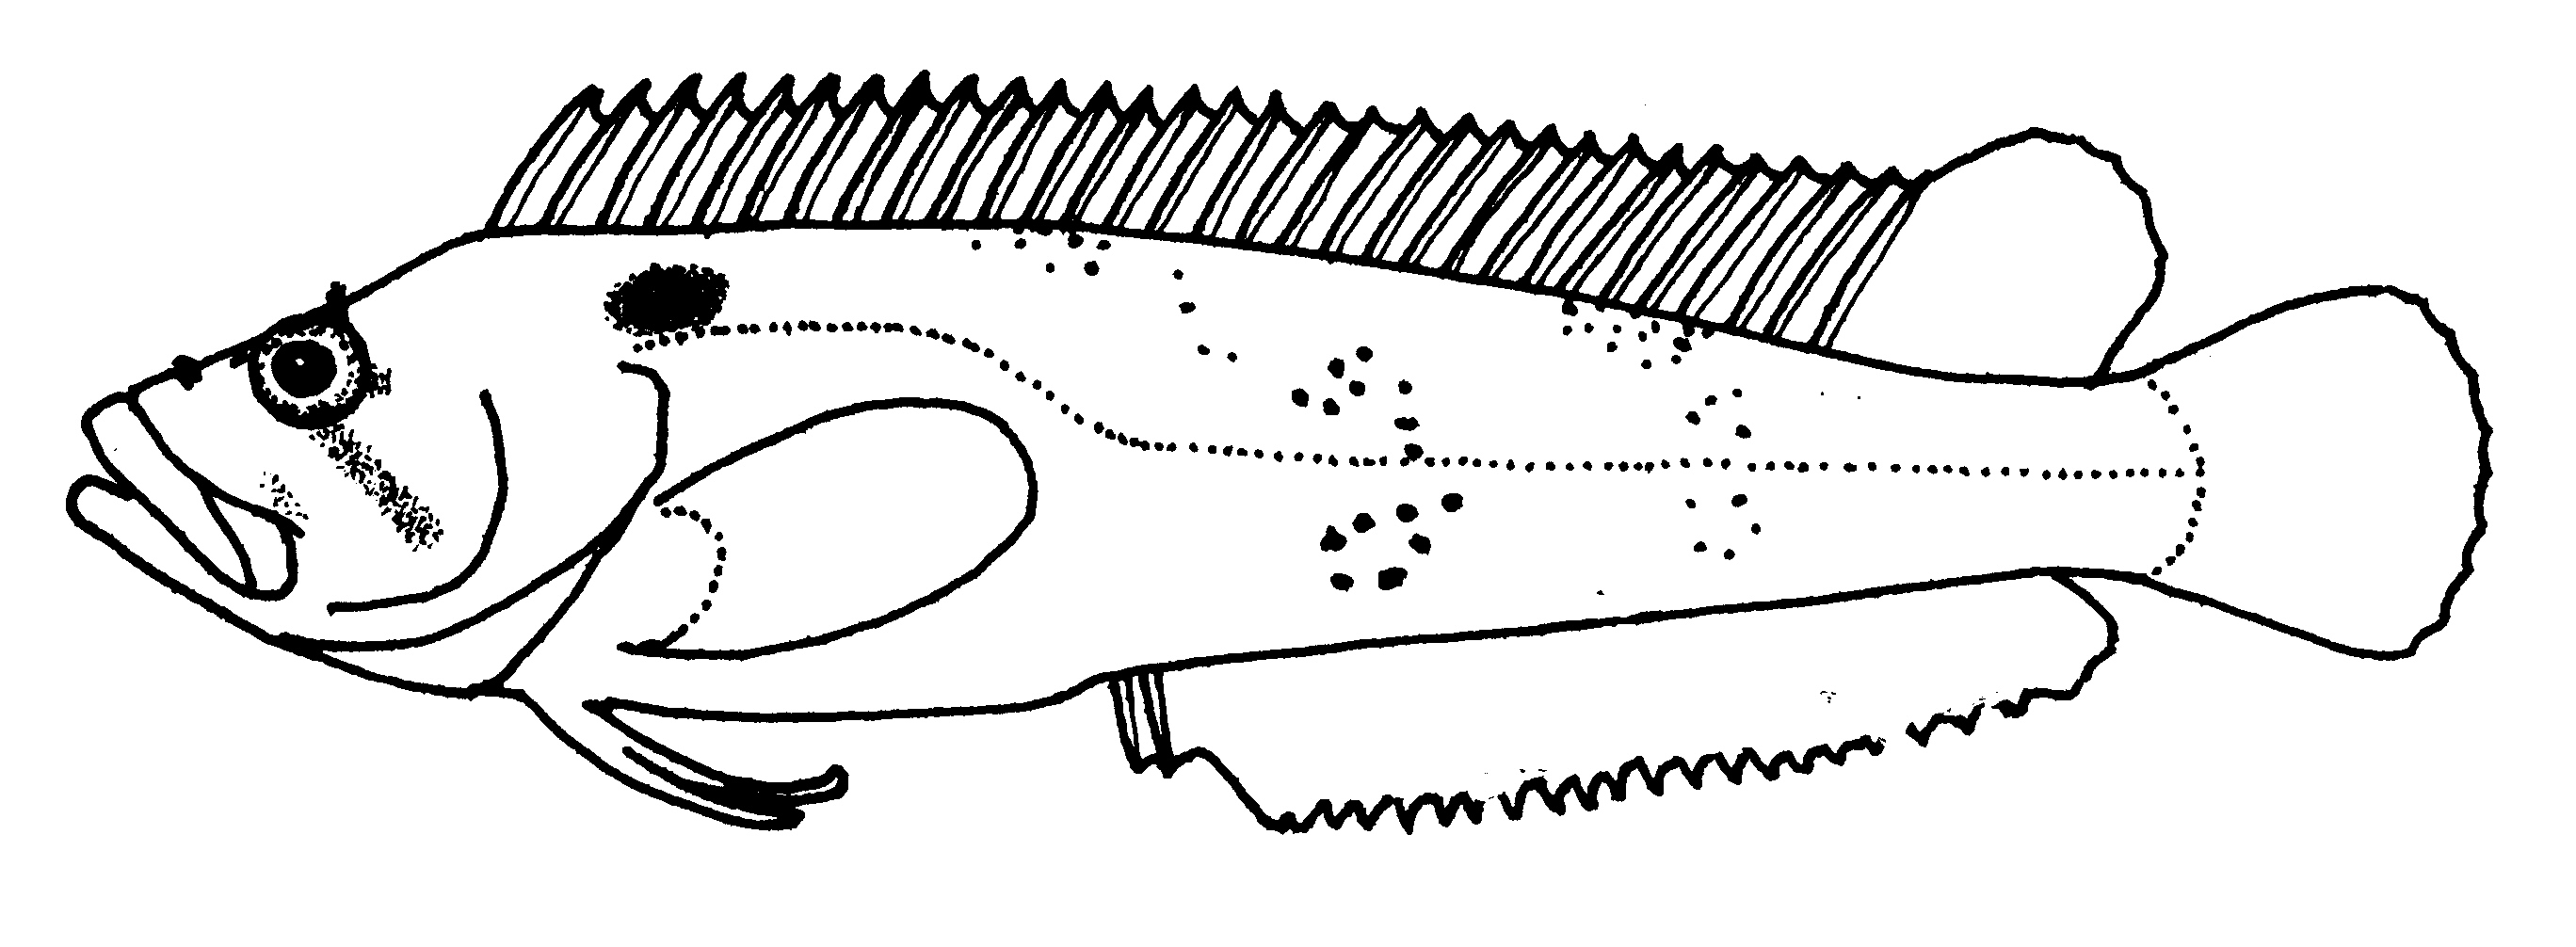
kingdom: Animalia
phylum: Chordata
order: Perciformes
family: Clinidae
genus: Clinus
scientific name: Clinus acuminatus
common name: Sad klipfish
